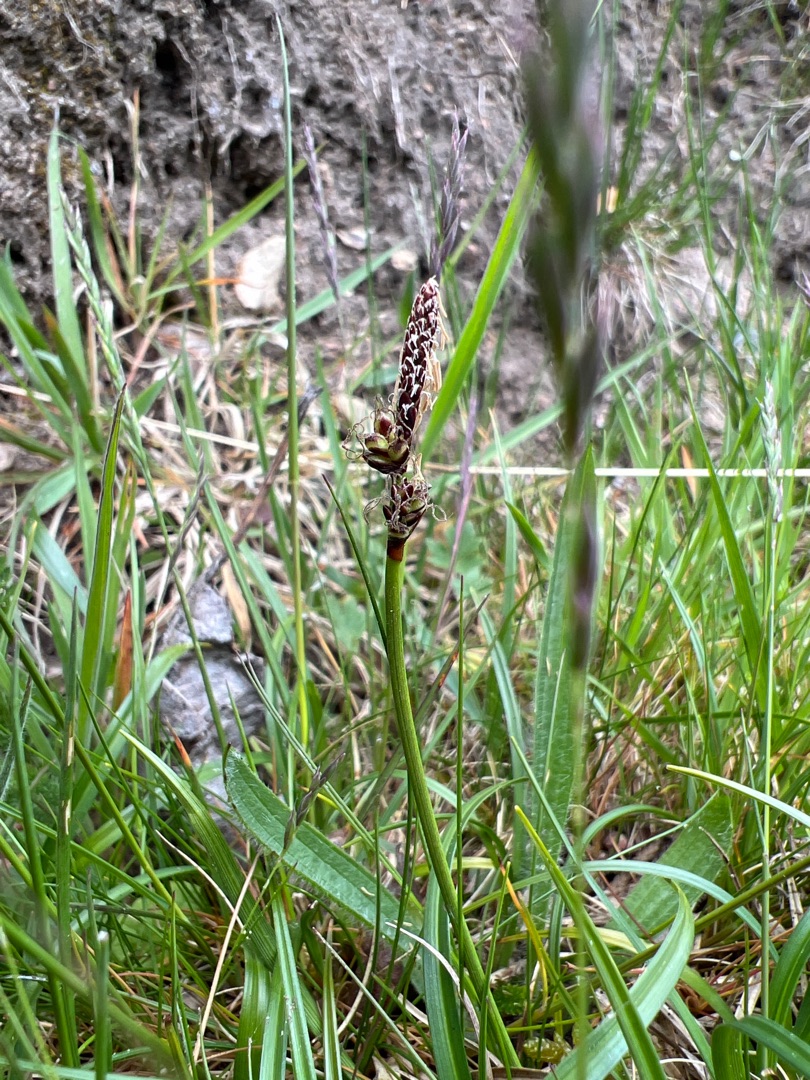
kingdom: Plantae
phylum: Tracheophyta
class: Liliopsida
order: Poales
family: Cyperaceae
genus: Carex
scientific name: Carex ericetorum
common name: Lyng-star
